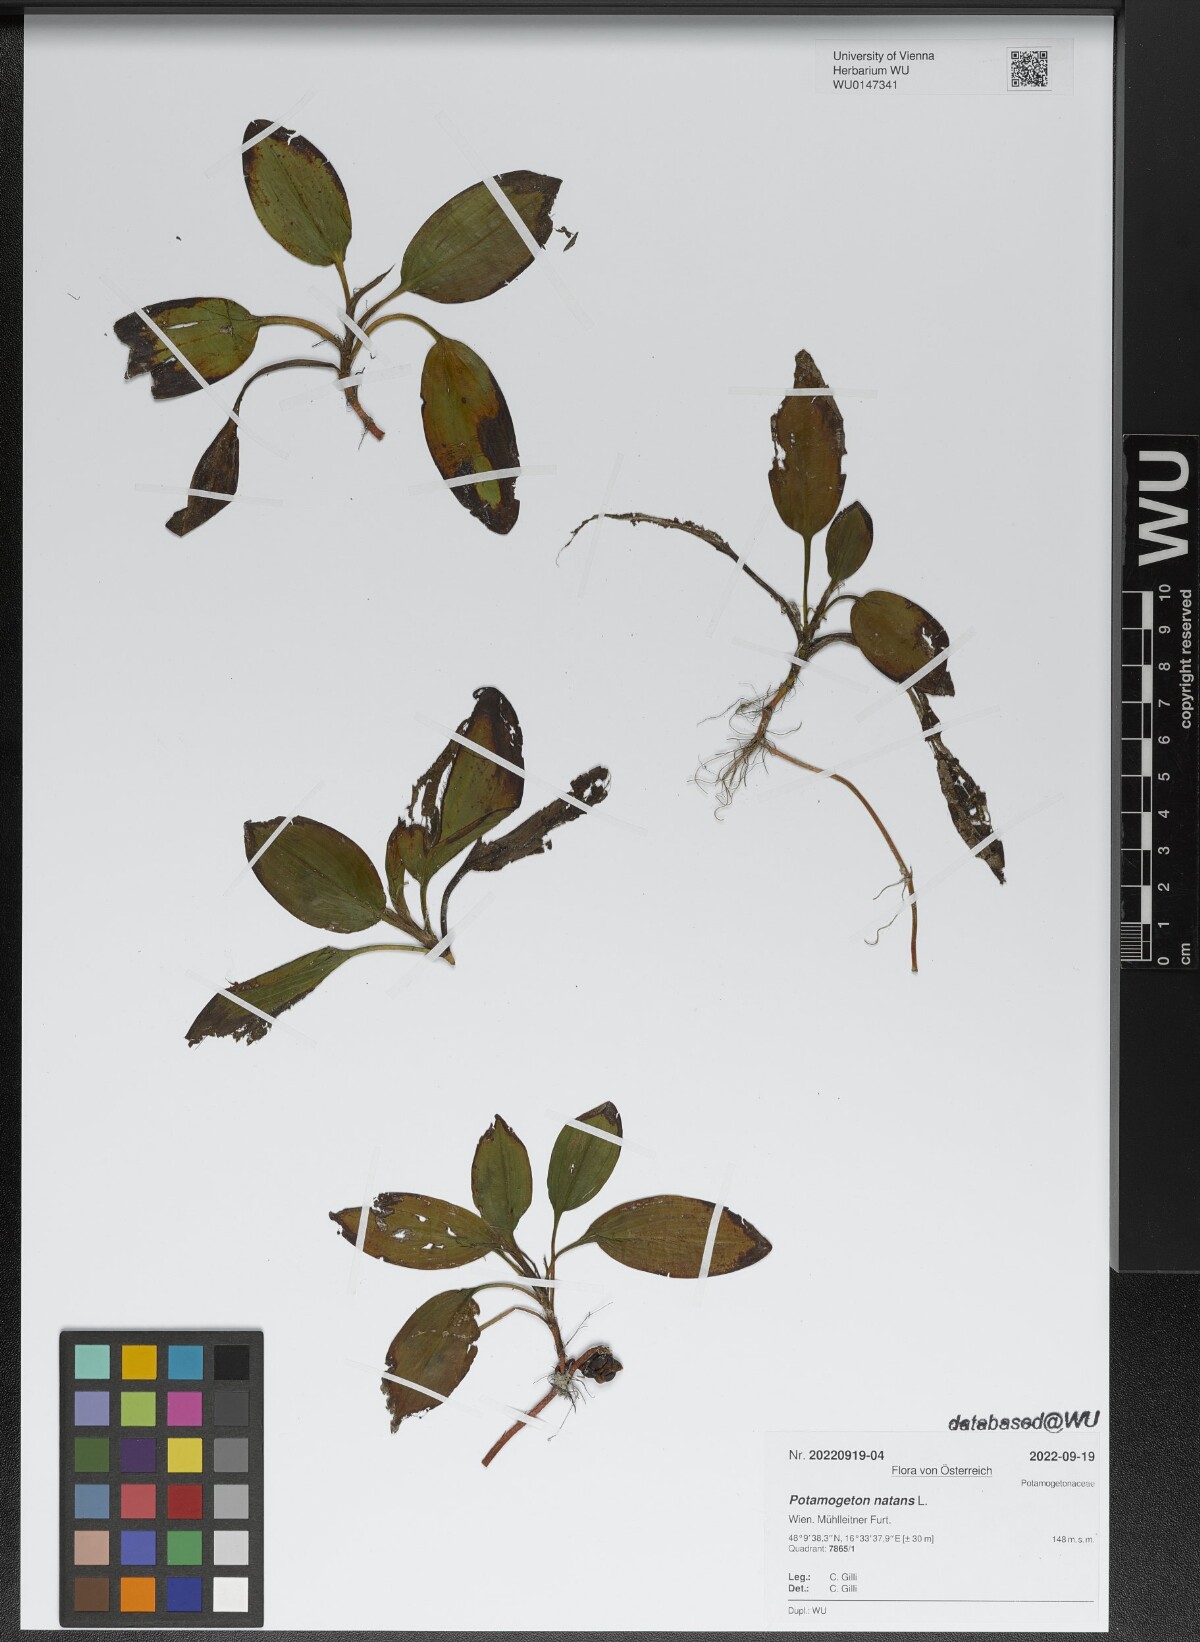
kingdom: Plantae
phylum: Tracheophyta
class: Liliopsida
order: Alismatales
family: Potamogetonaceae
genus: Potamogeton
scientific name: Potamogeton natans
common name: Broad-leaved pondweed
